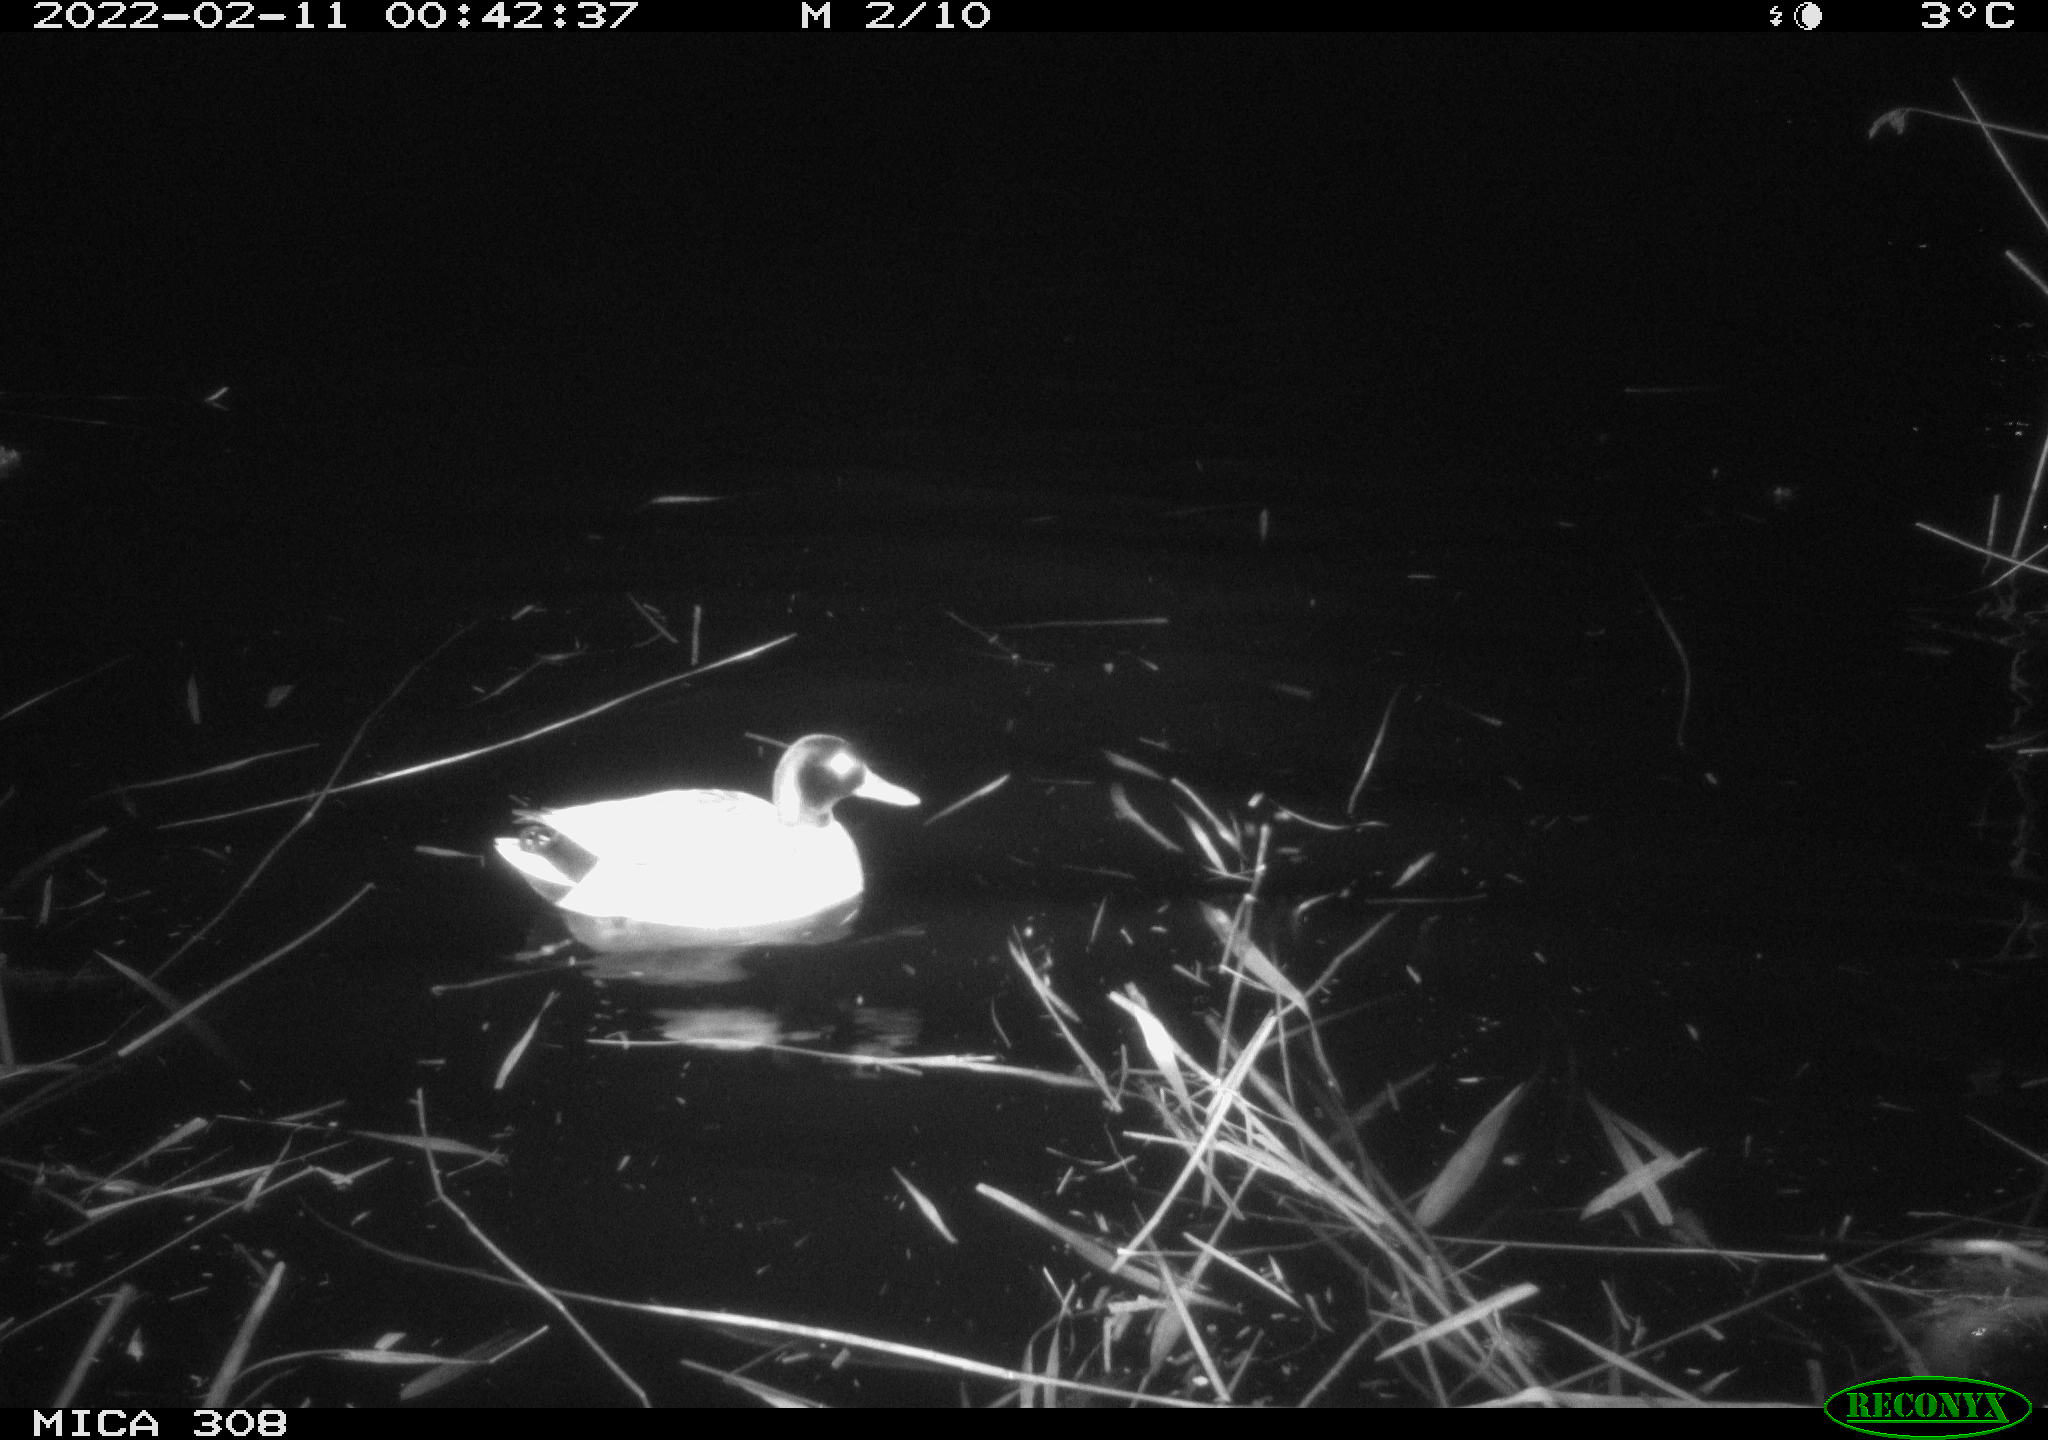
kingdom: Animalia
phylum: Chordata
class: Aves
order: Anseriformes
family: Anatidae
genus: Anas
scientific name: Anas platyrhynchos
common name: Mallard
